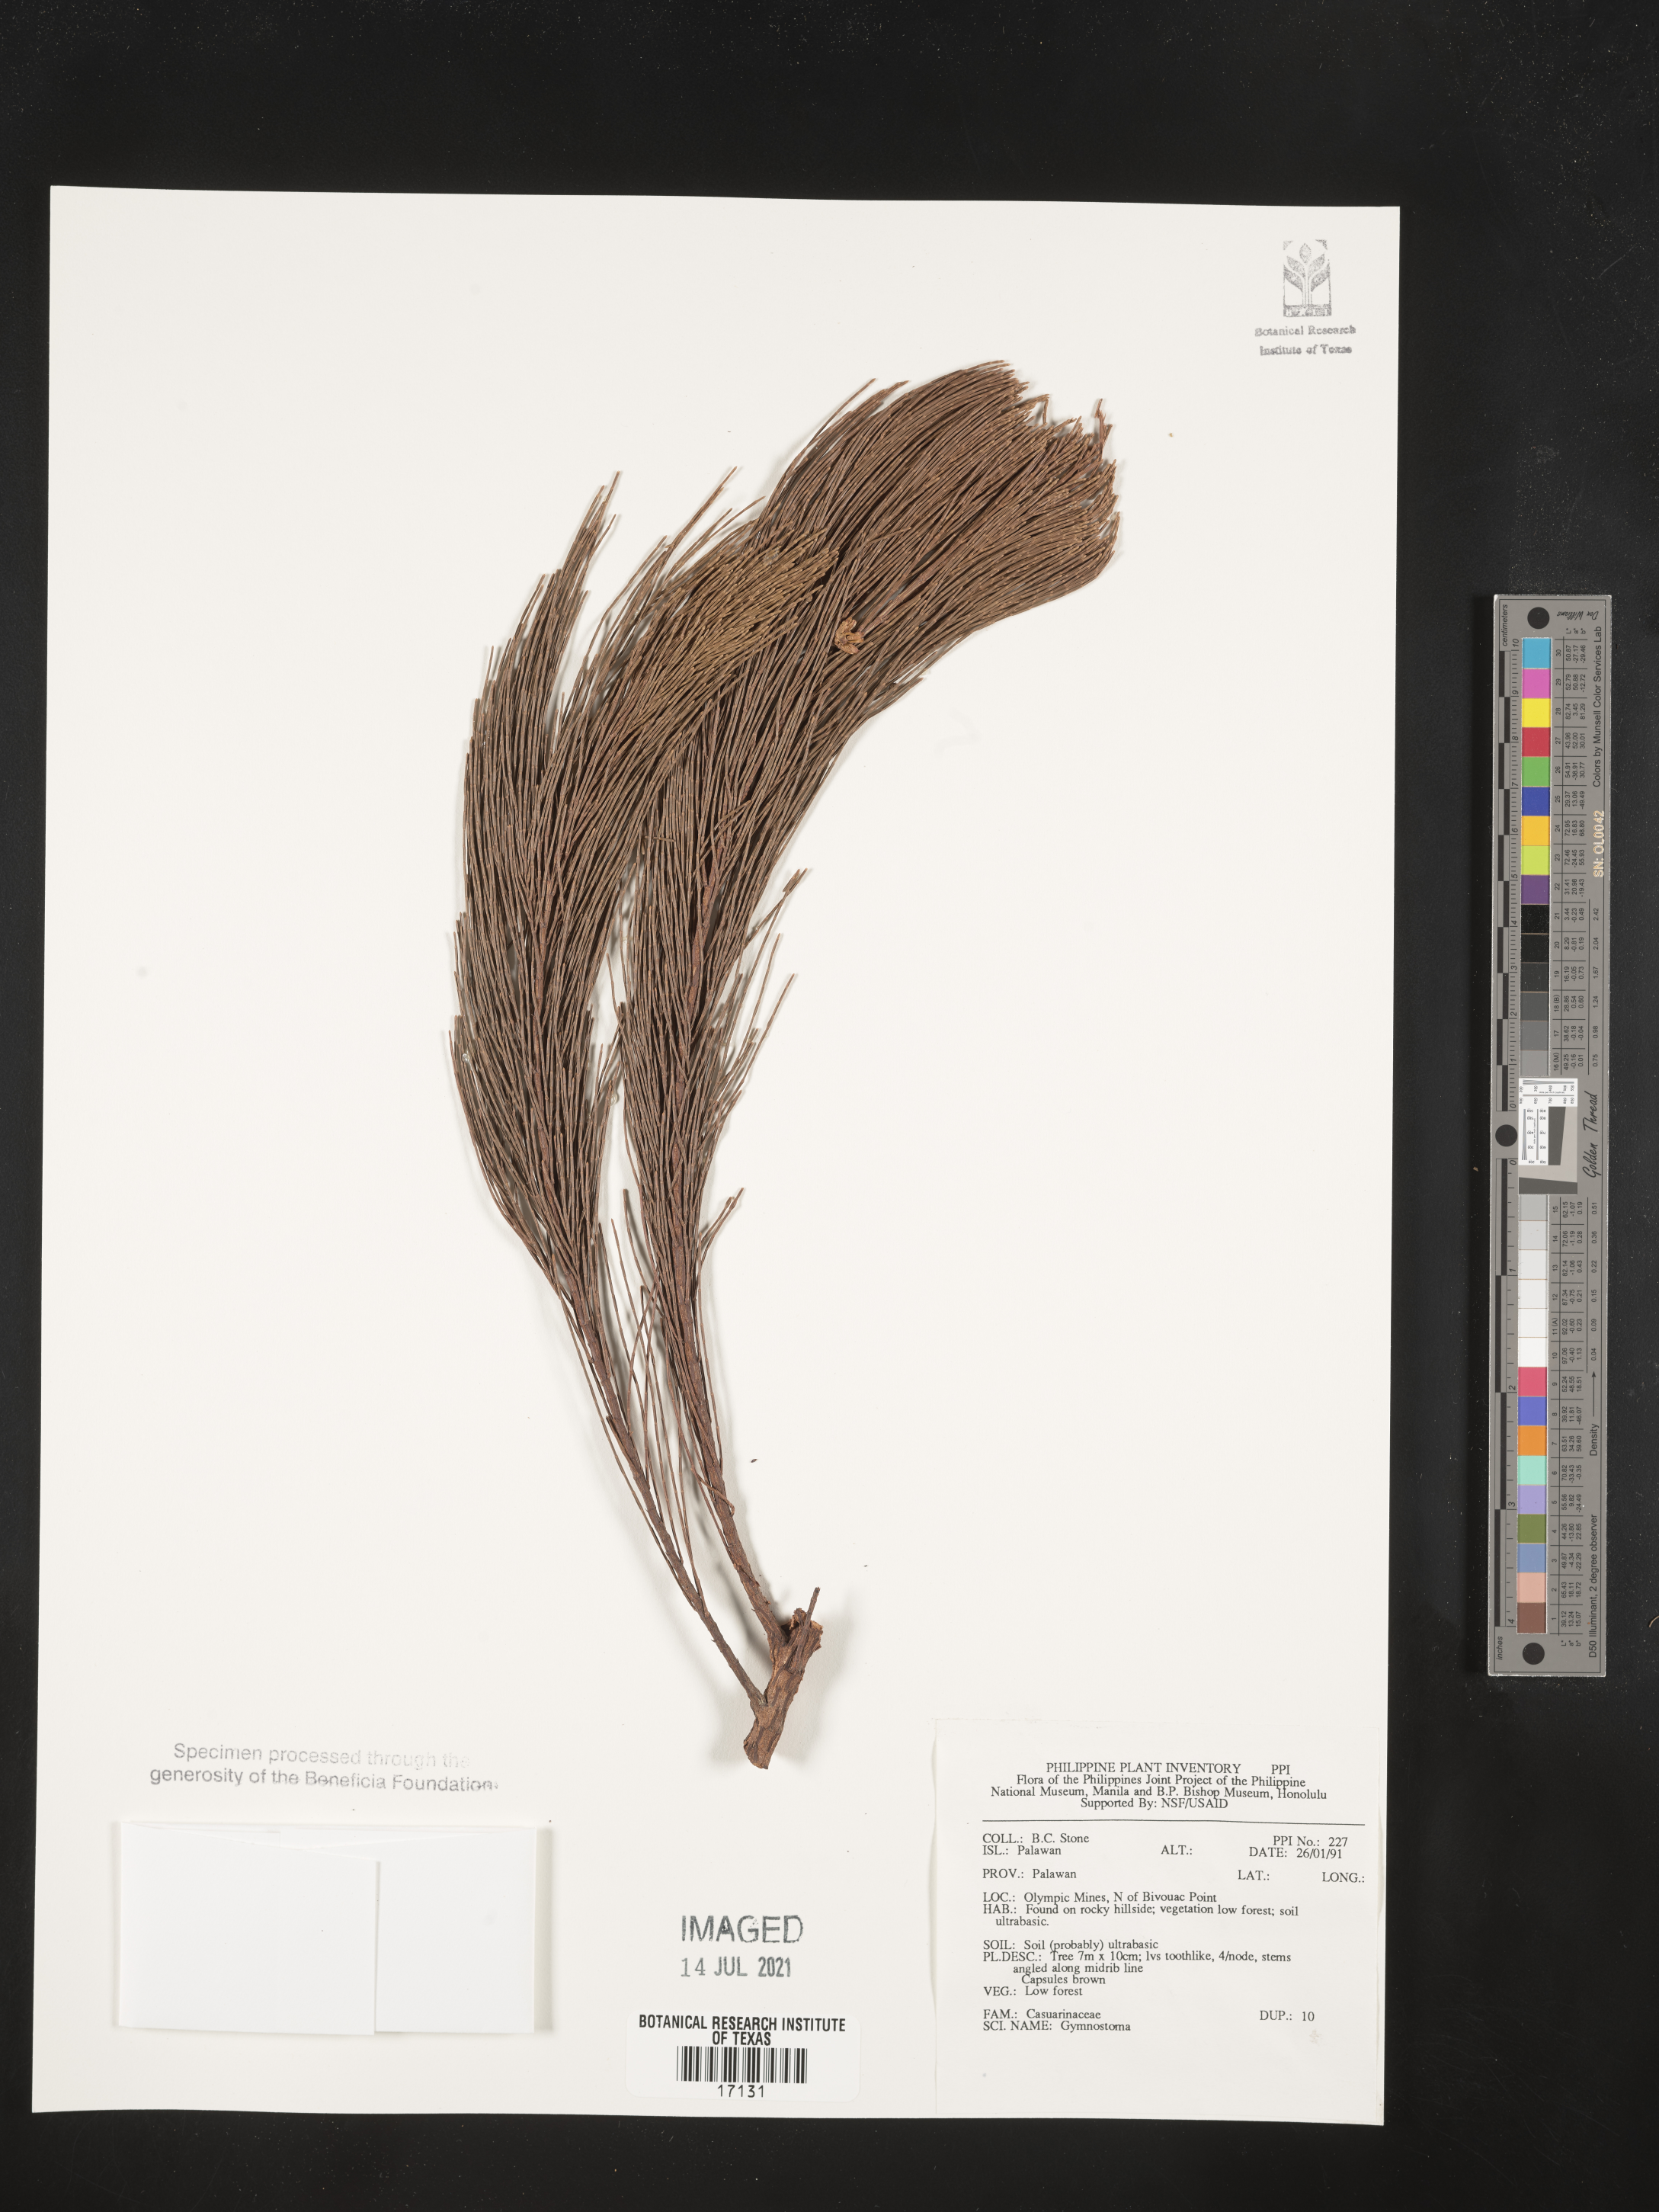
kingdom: Plantae
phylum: Tracheophyta
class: Magnoliopsida
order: Fagales
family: Casuarinaceae
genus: Gymnostoma
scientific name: Gymnostoma
